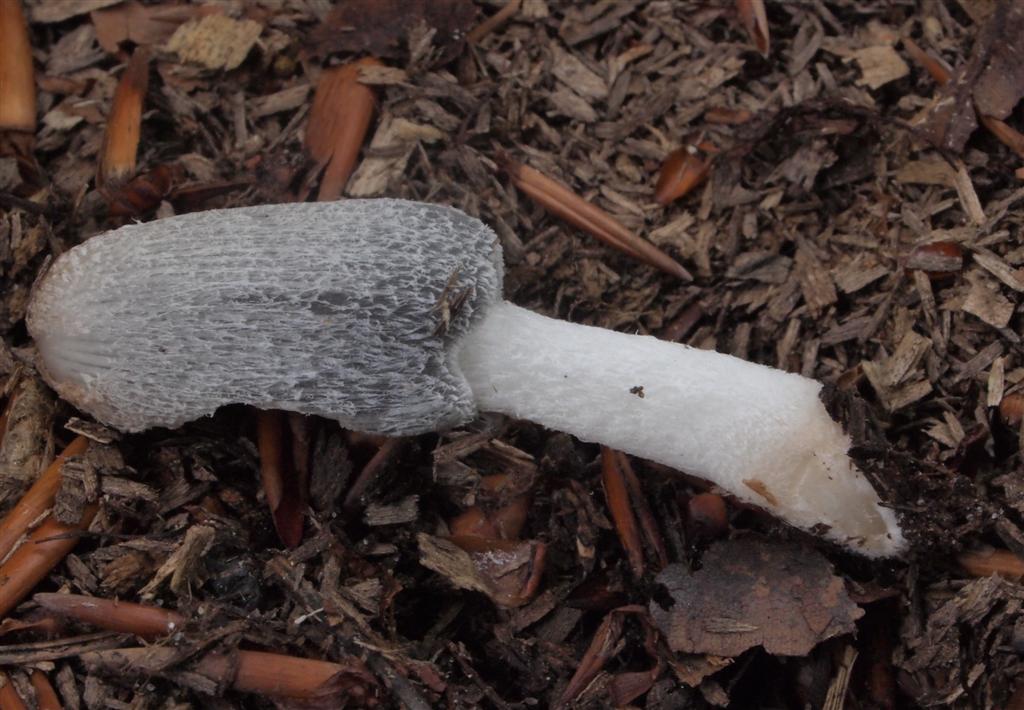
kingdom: Fungi
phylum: Basidiomycota
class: Agaricomycetes
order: Agaricales
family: Psathyrellaceae
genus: Coprinopsis
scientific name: Coprinopsis lagopus
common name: dunstokket blækhat
